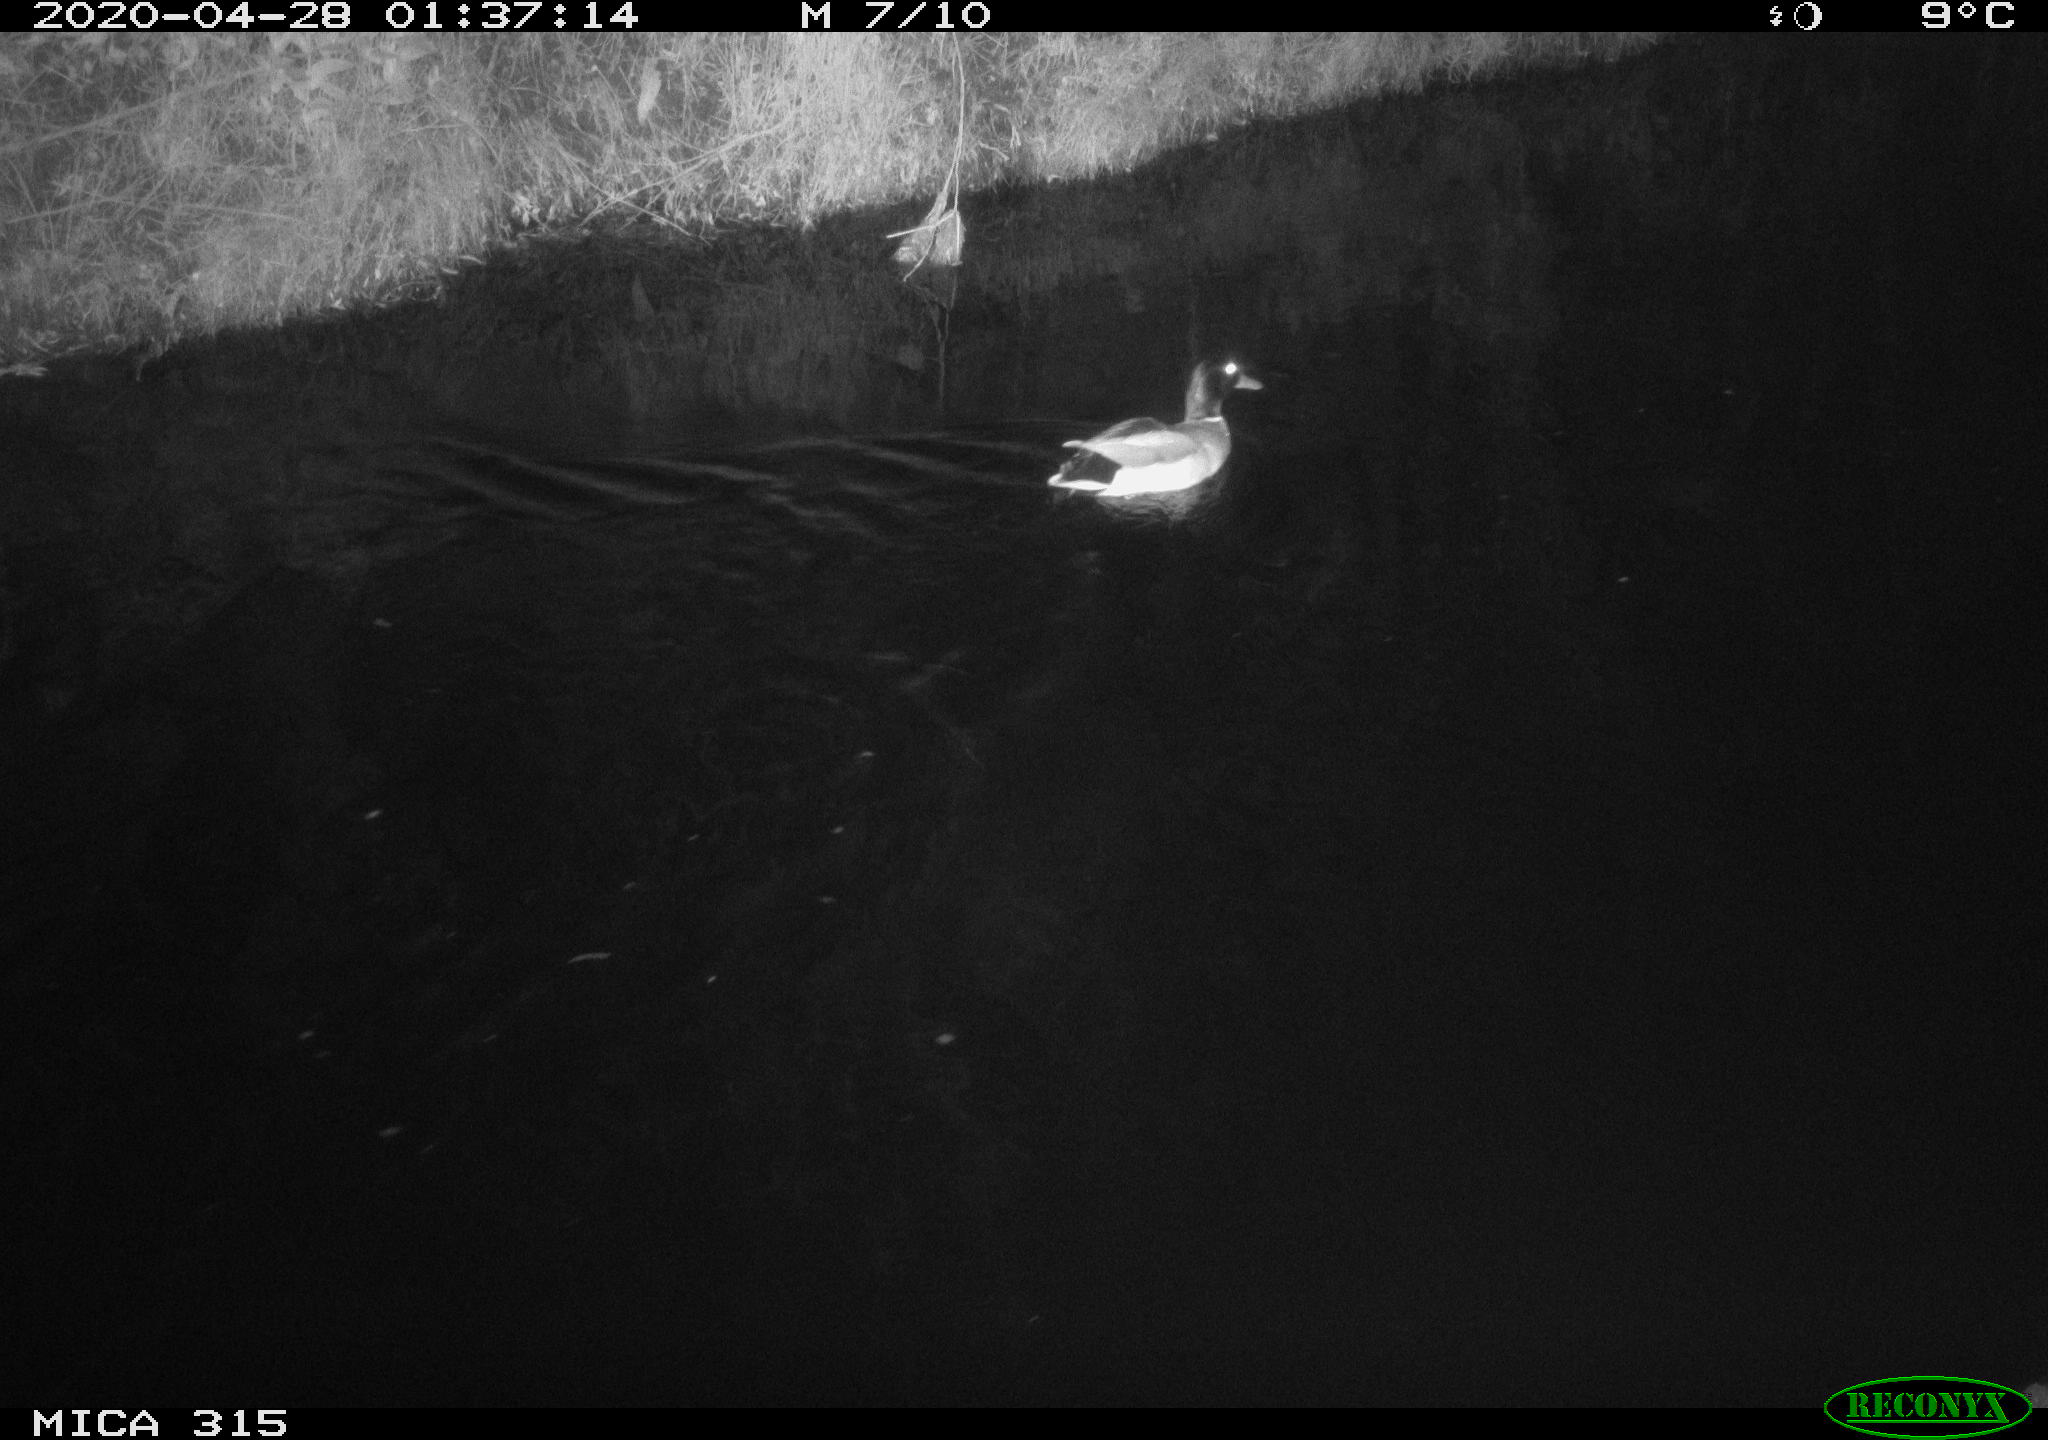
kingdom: Animalia
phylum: Chordata
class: Aves
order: Anseriformes
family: Anatidae
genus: Anas
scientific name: Anas platyrhynchos
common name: Mallard
